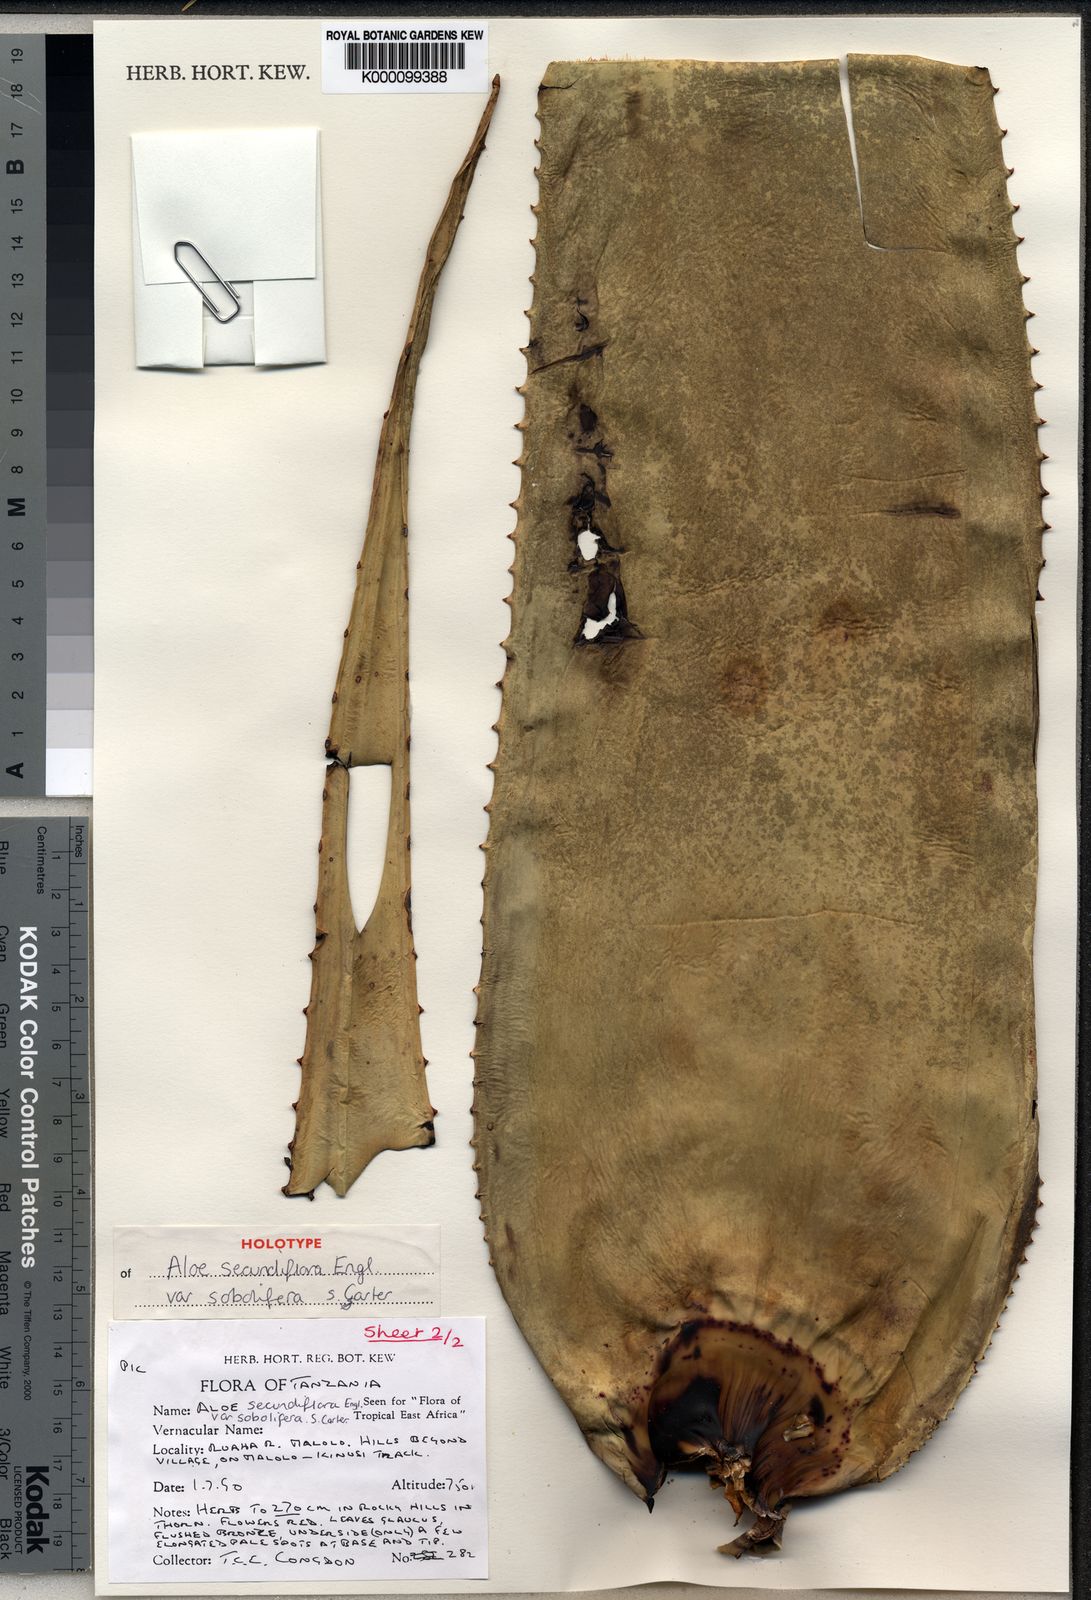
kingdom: Plantae
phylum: Tracheophyta
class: Liliopsida
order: Asparagales
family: Asphodelaceae
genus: Aloe
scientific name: Aloe sobolifera
